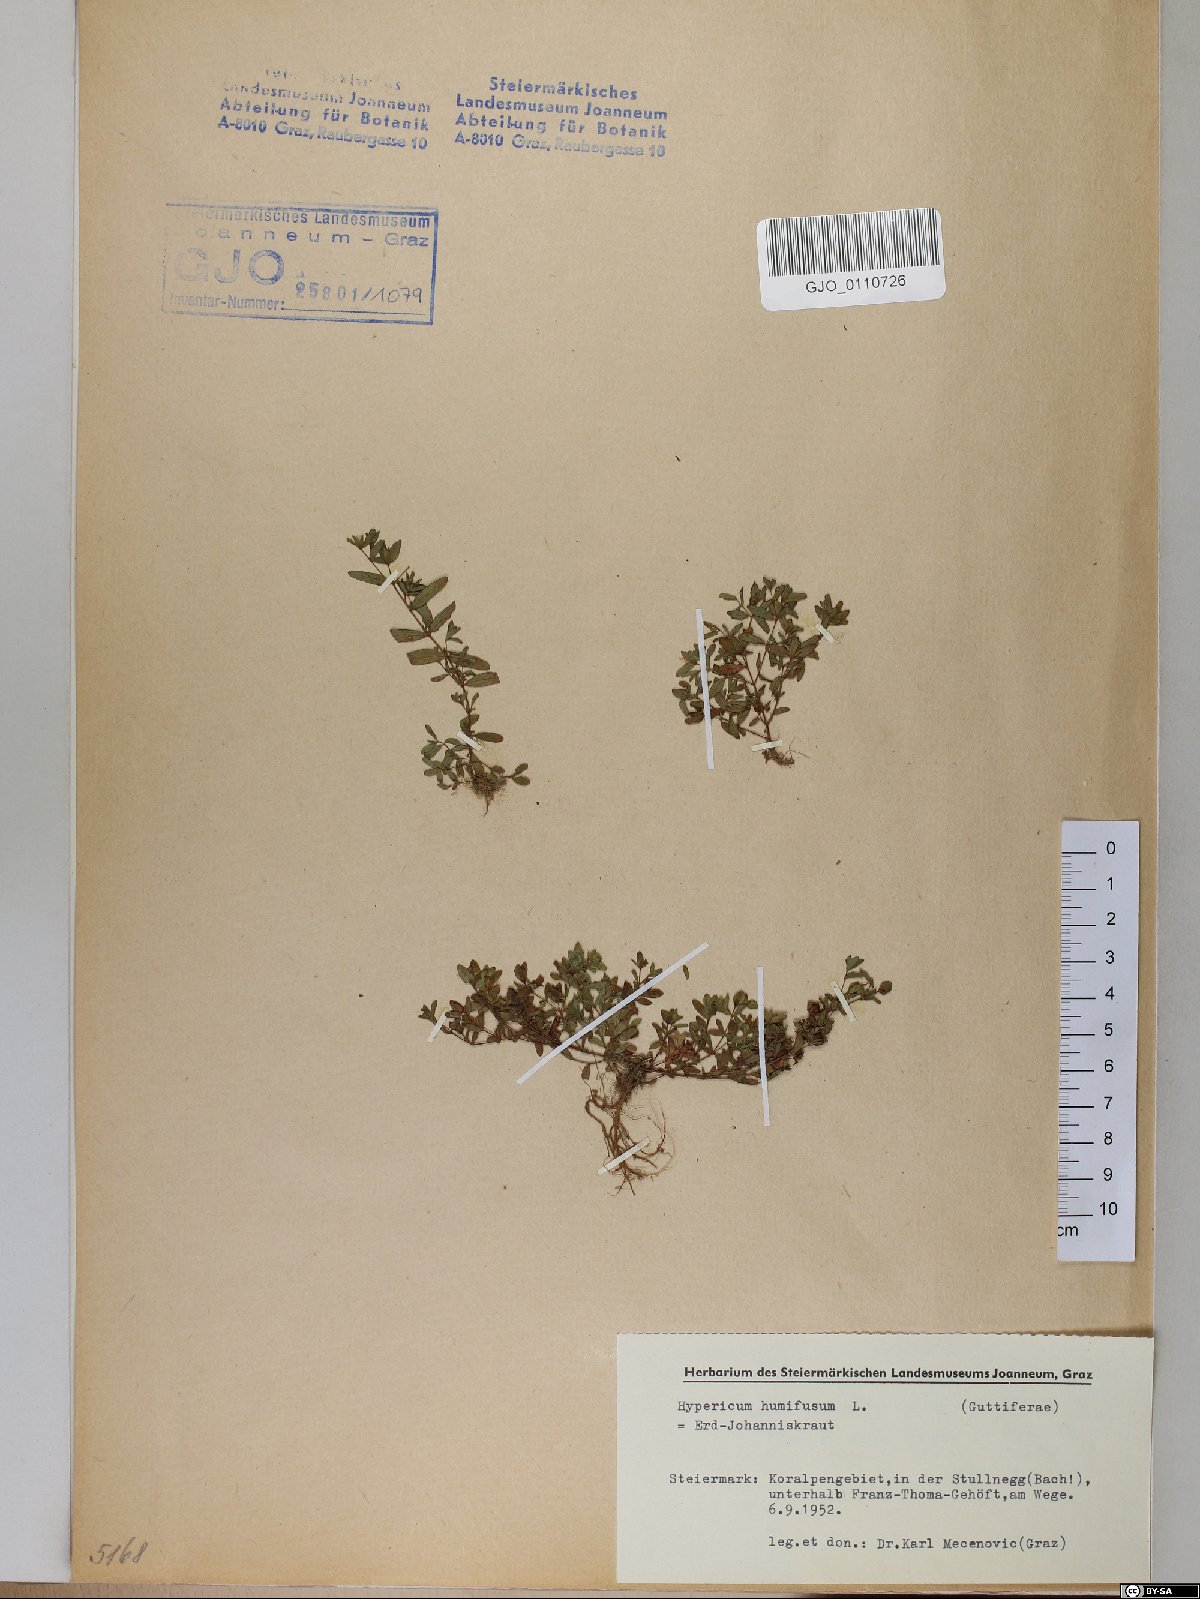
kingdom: Plantae
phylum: Tracheophyta
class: Magnoliopsida
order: Malpighiales
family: Hypericaceae
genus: Hypericum
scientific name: Hypericum humifusum
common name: Trailing st. john's-wort
